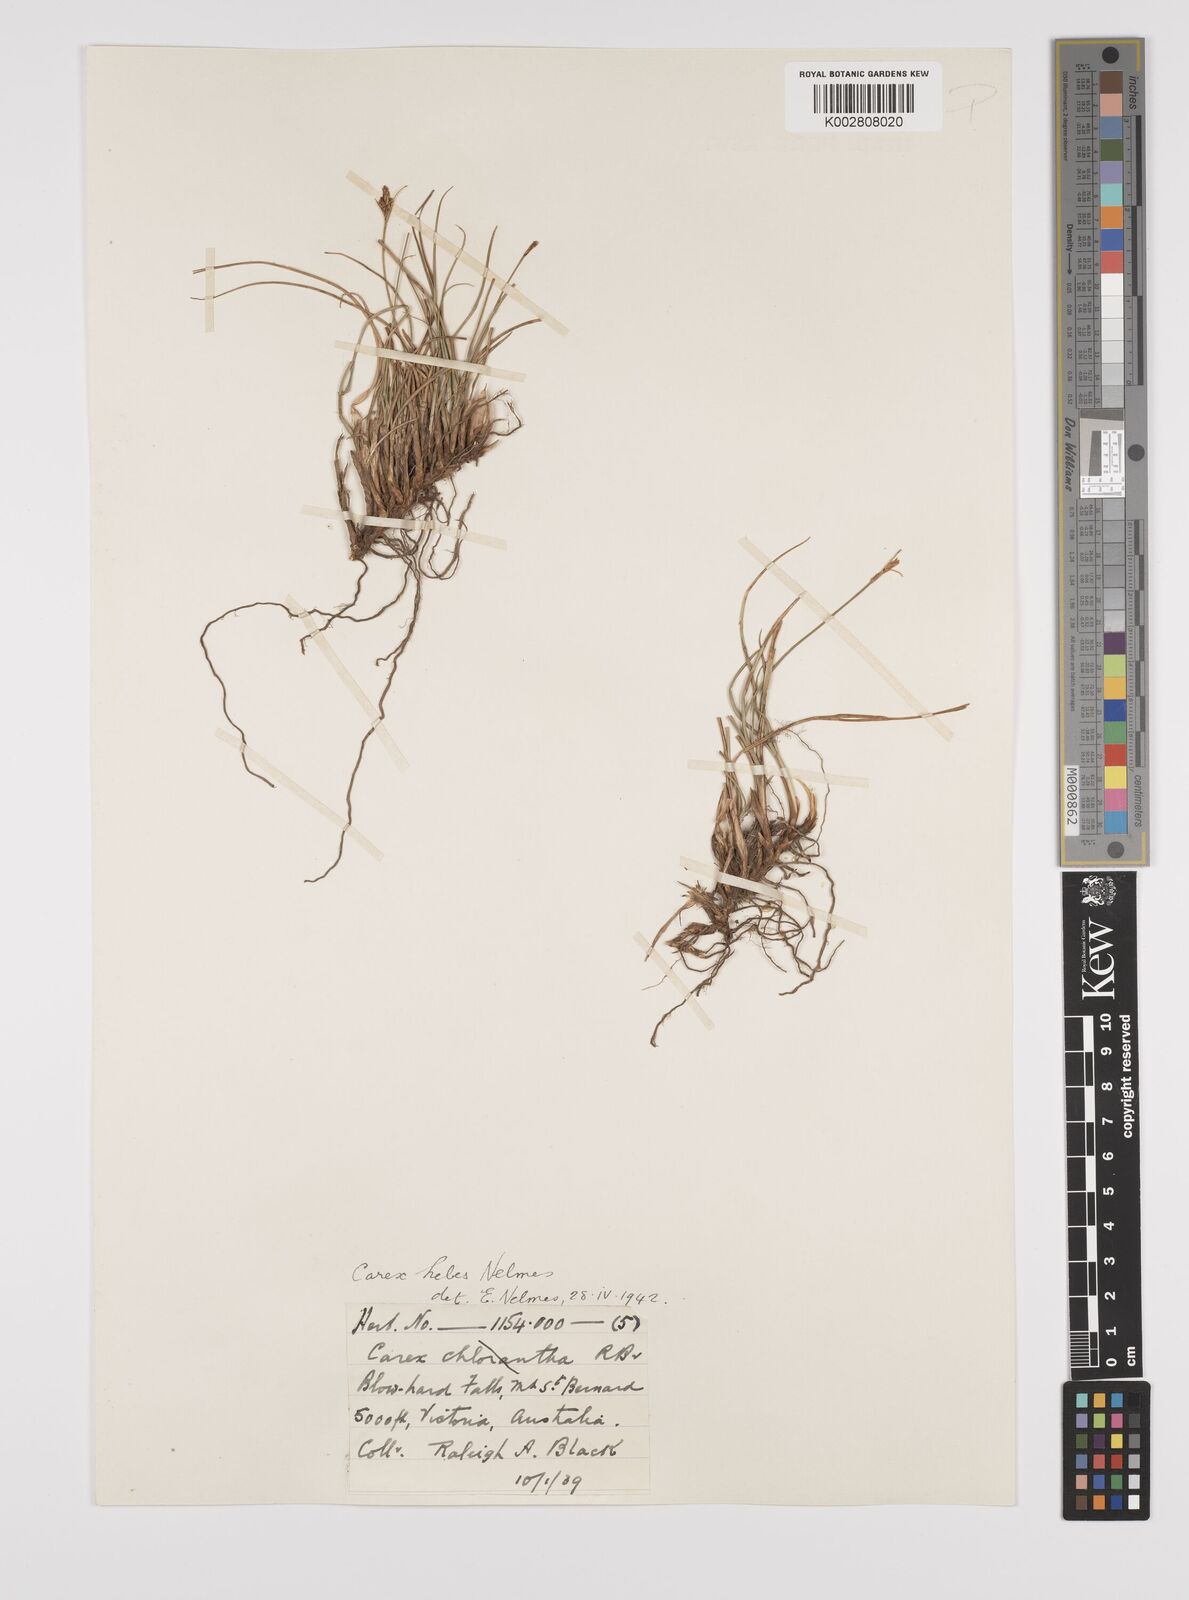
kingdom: Plantae
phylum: Tracheophyta
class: Liliopsida
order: Poales
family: Cyperaceae
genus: Carex
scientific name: Carex hebes
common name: Dry land sedge
